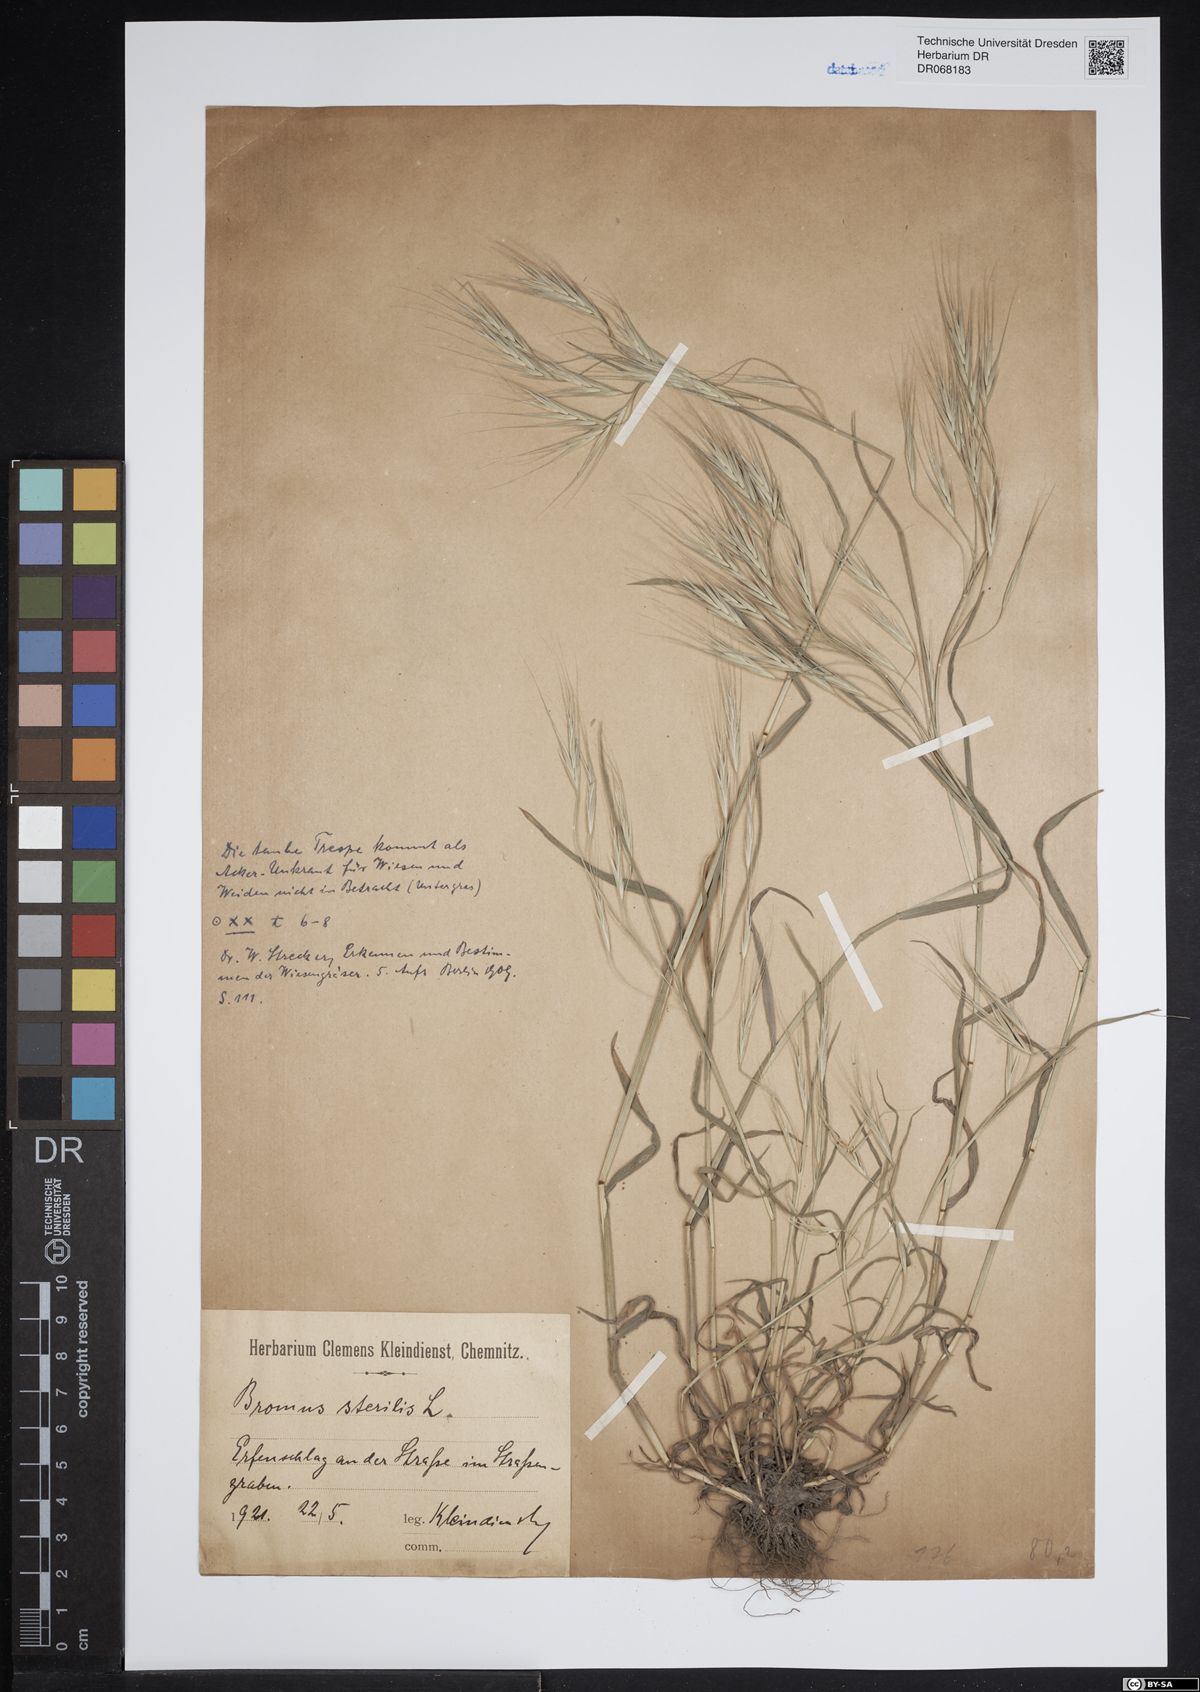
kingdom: Plantae
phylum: Tracheophyta
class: Liliopsida
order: Poales
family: Poaceae
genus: Bromus
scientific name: Bromus sterilis
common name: Poverty brome
